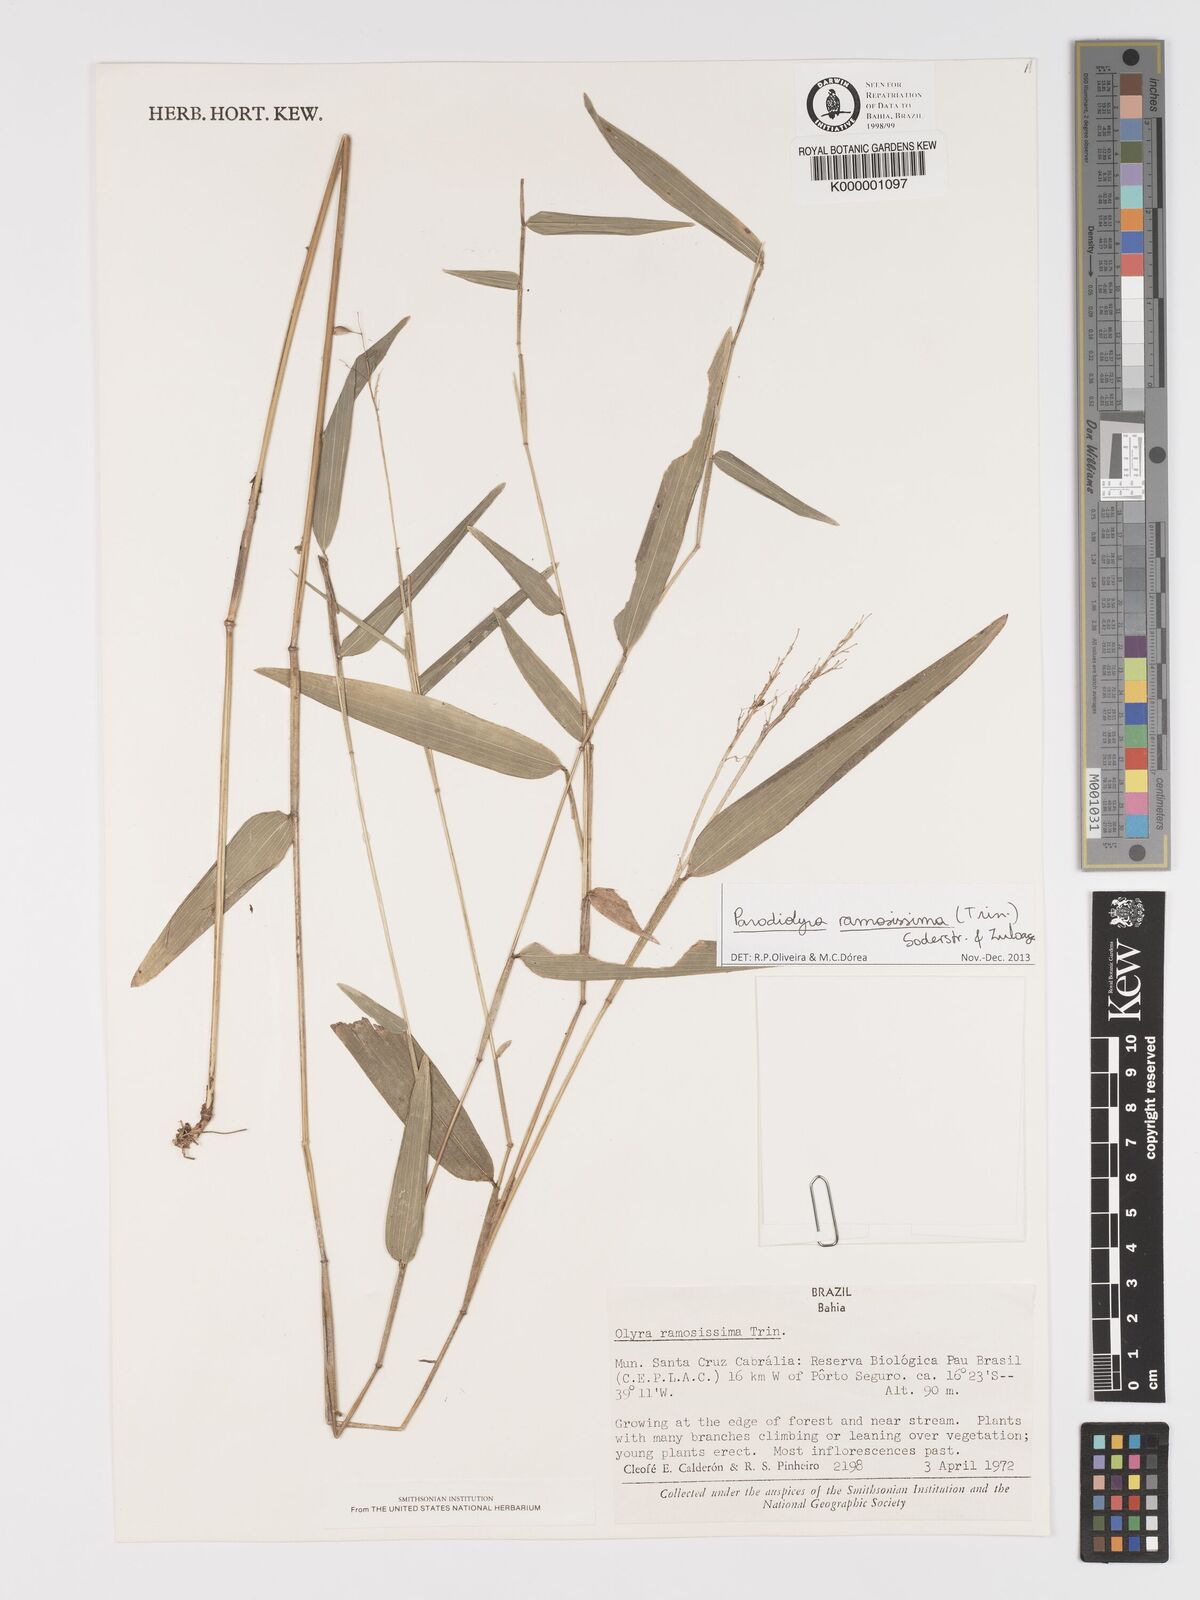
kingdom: Plantae
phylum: Tracheophyta
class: Liliopsida
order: Poales
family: Poaceae
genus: Parodiolyra
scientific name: Parodiolyra ramosissima
